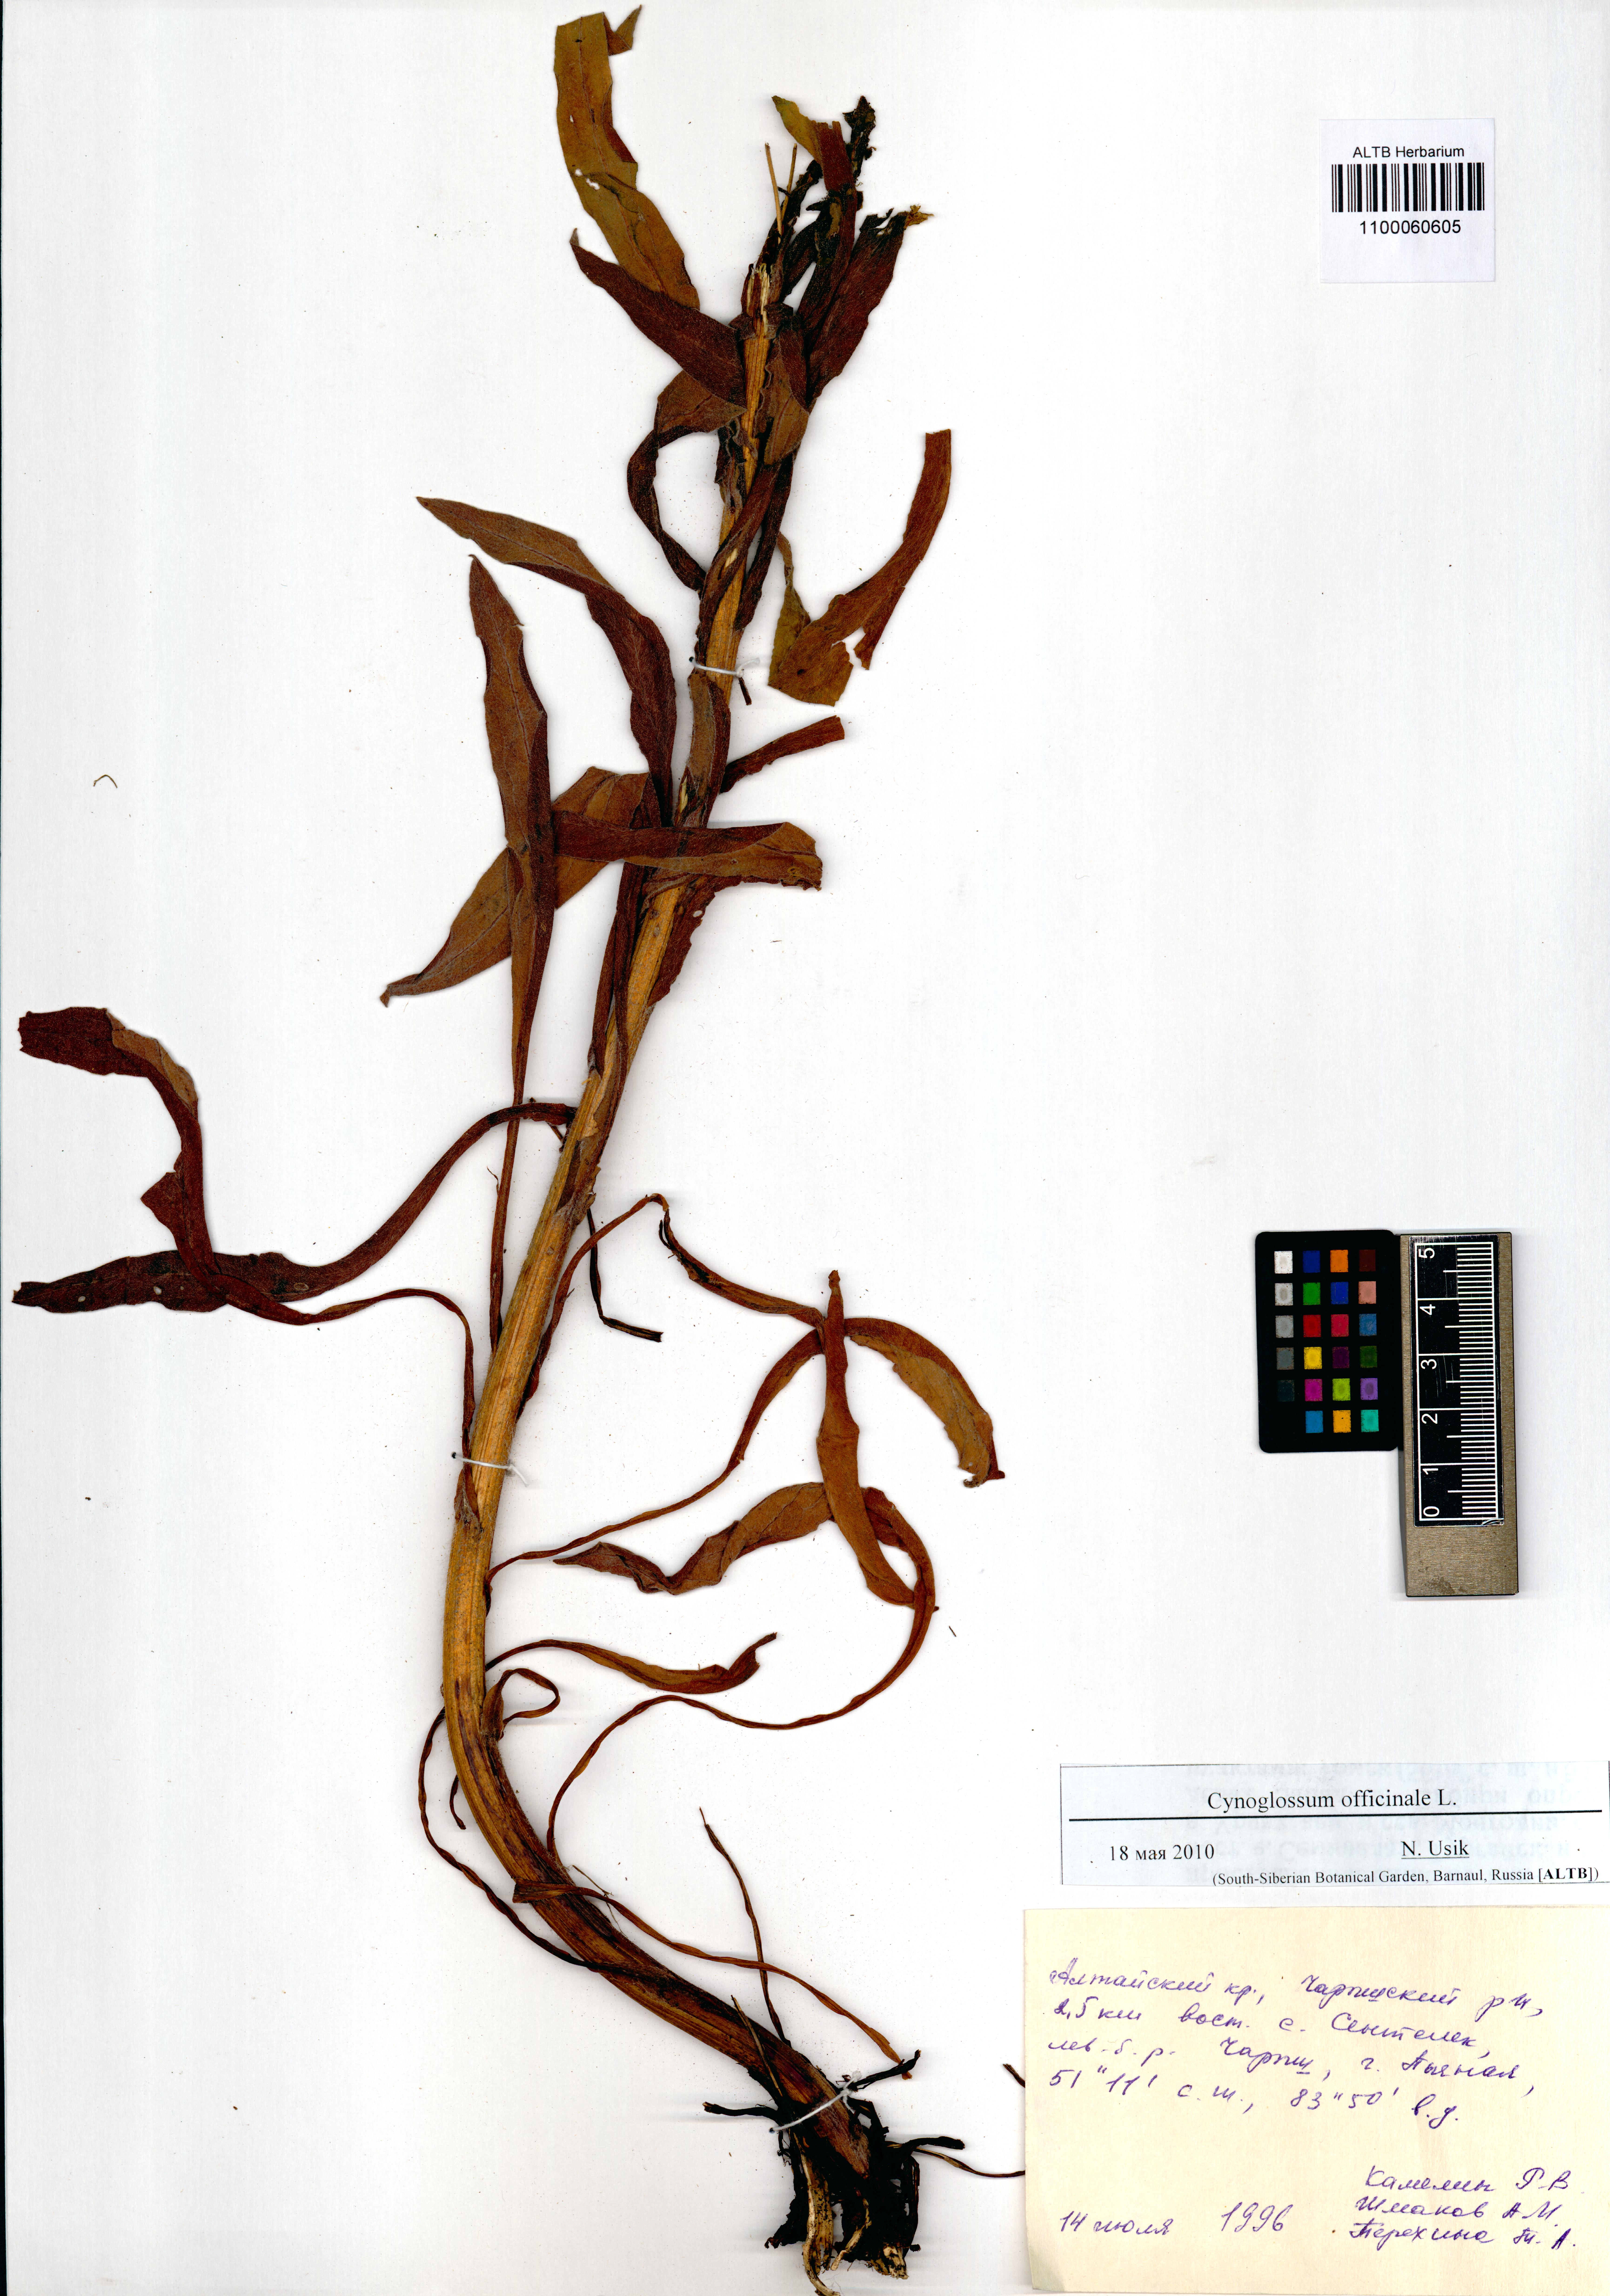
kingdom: Plantae
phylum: Tracheophyta
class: Magnoliopsida
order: Boraginales
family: Boraginaceae
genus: Cynoglossum
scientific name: Cynoglossum officinale
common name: Hound's-tongue
